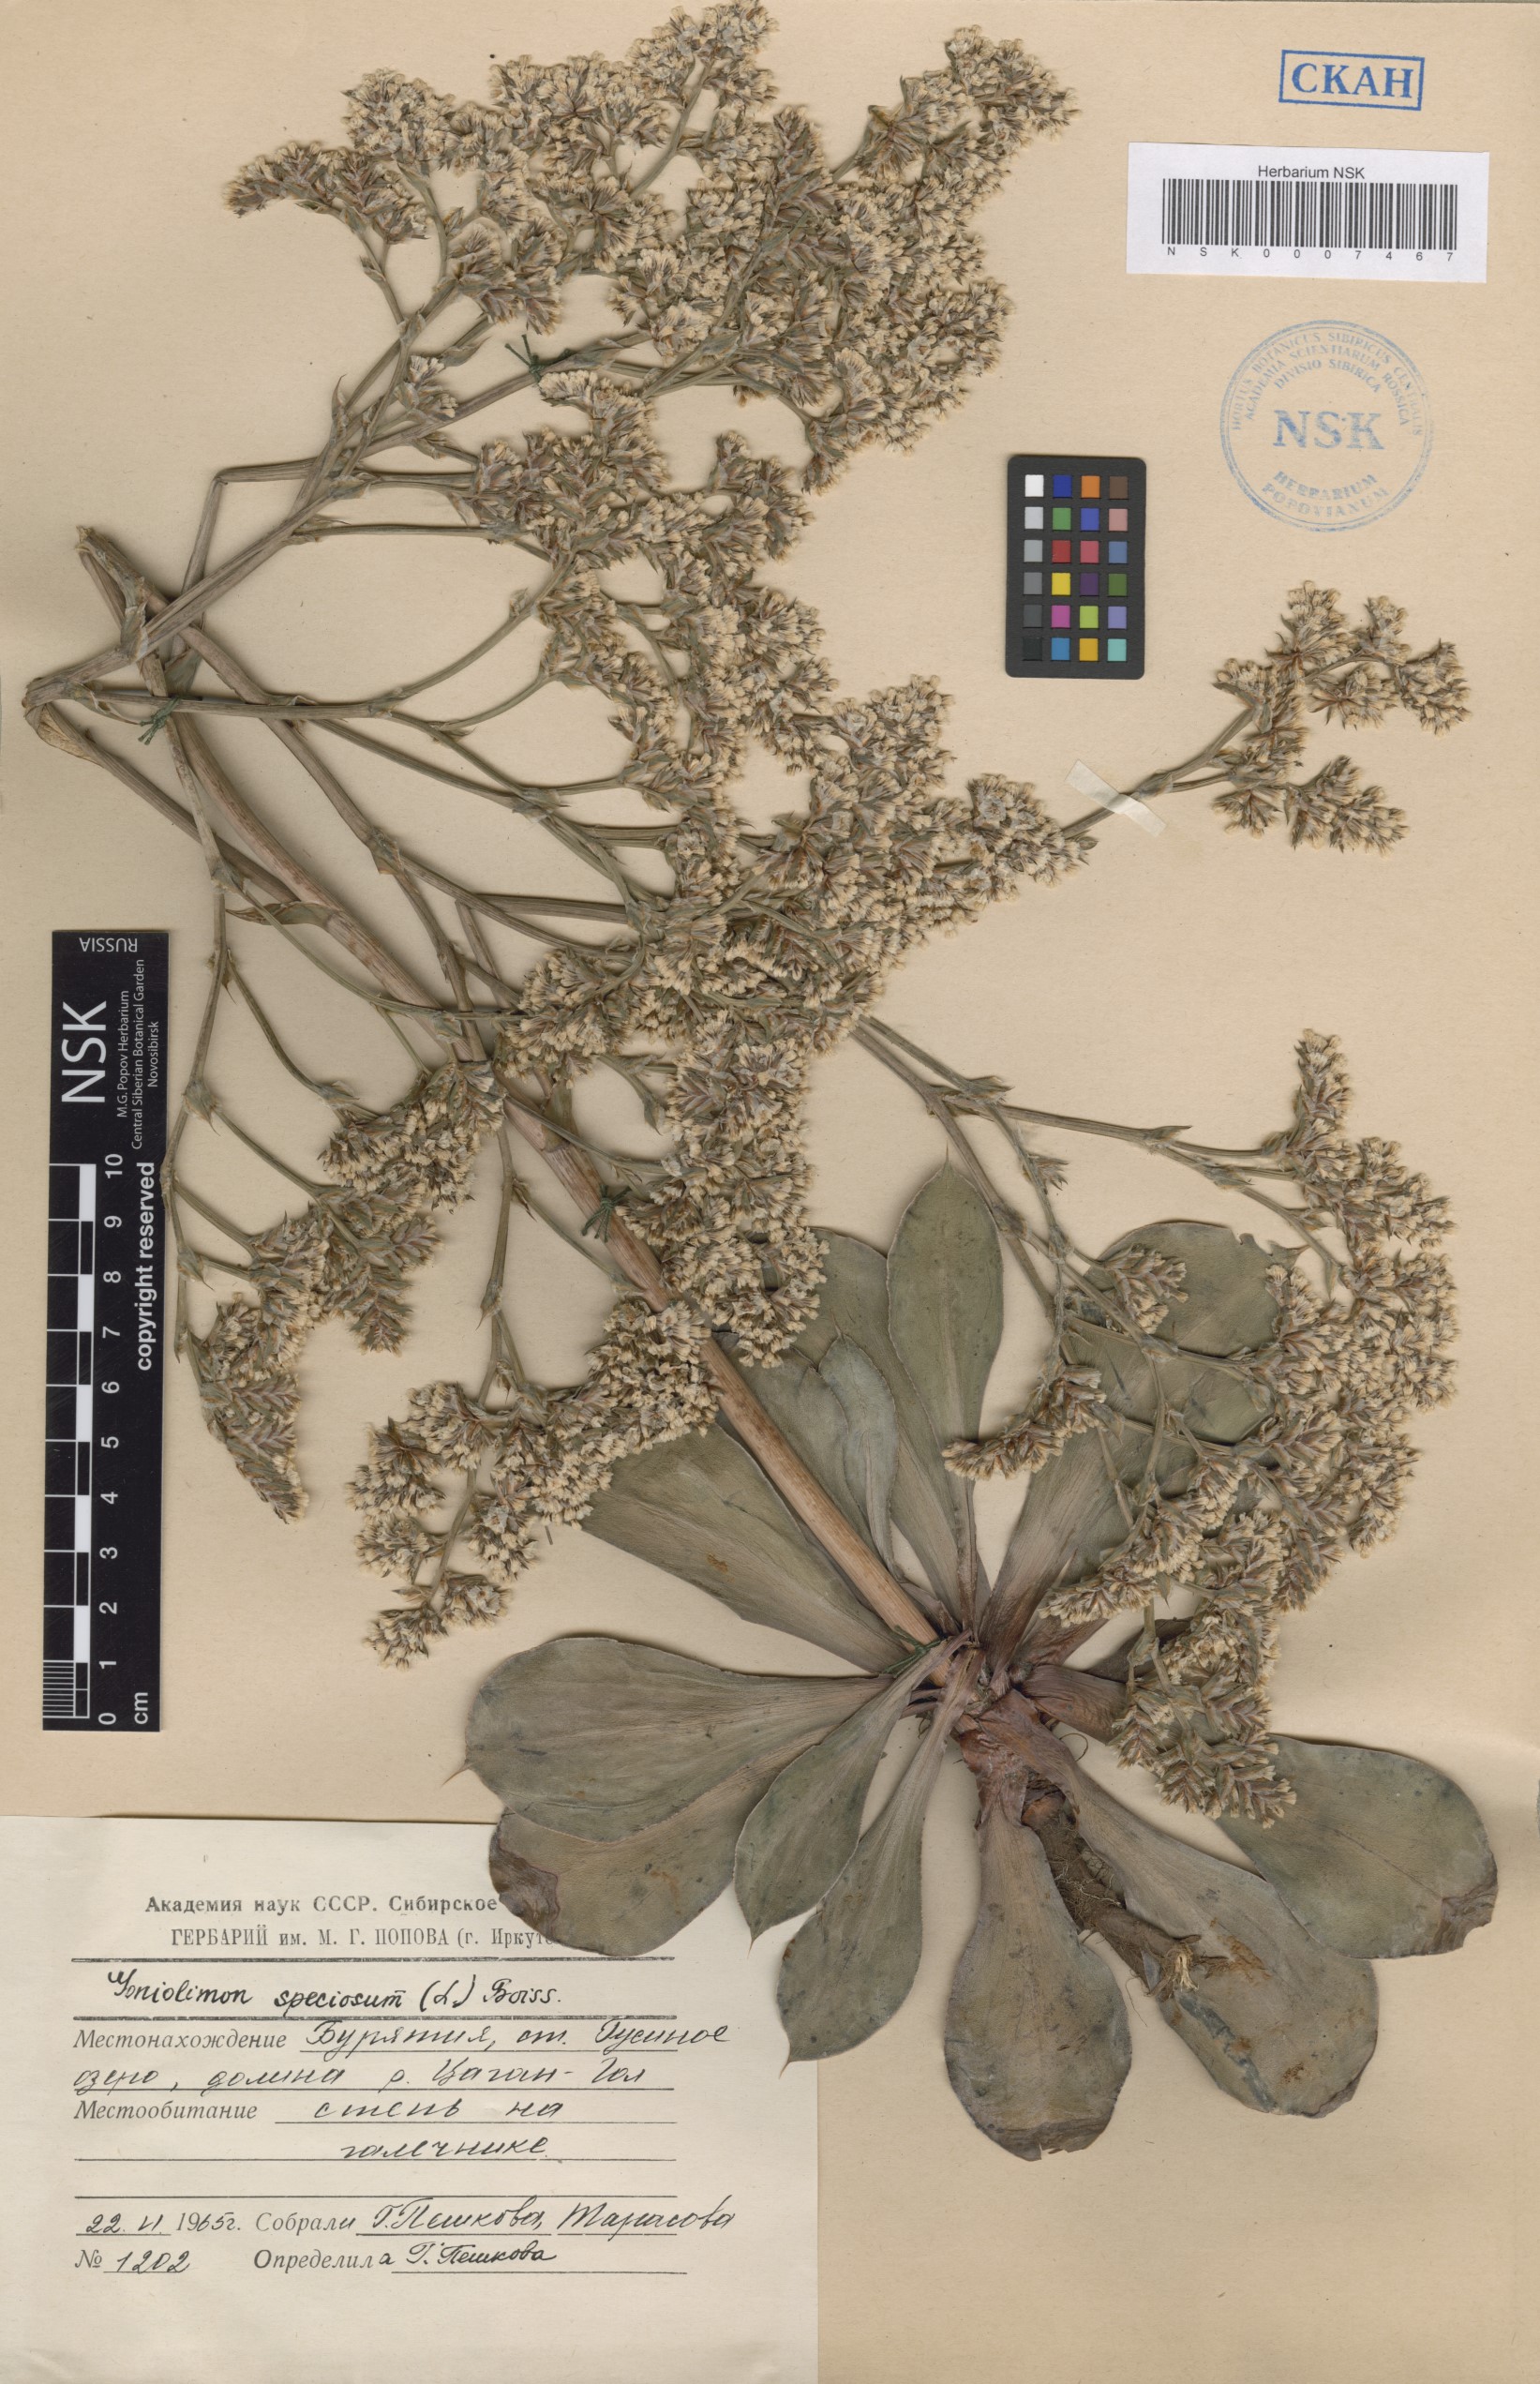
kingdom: Plantae
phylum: Tracheophyta
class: Magnoliopsida
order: Caryophyllales
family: Plumbaginaceae
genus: Goniolimon
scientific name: Goniolimon speciosum
